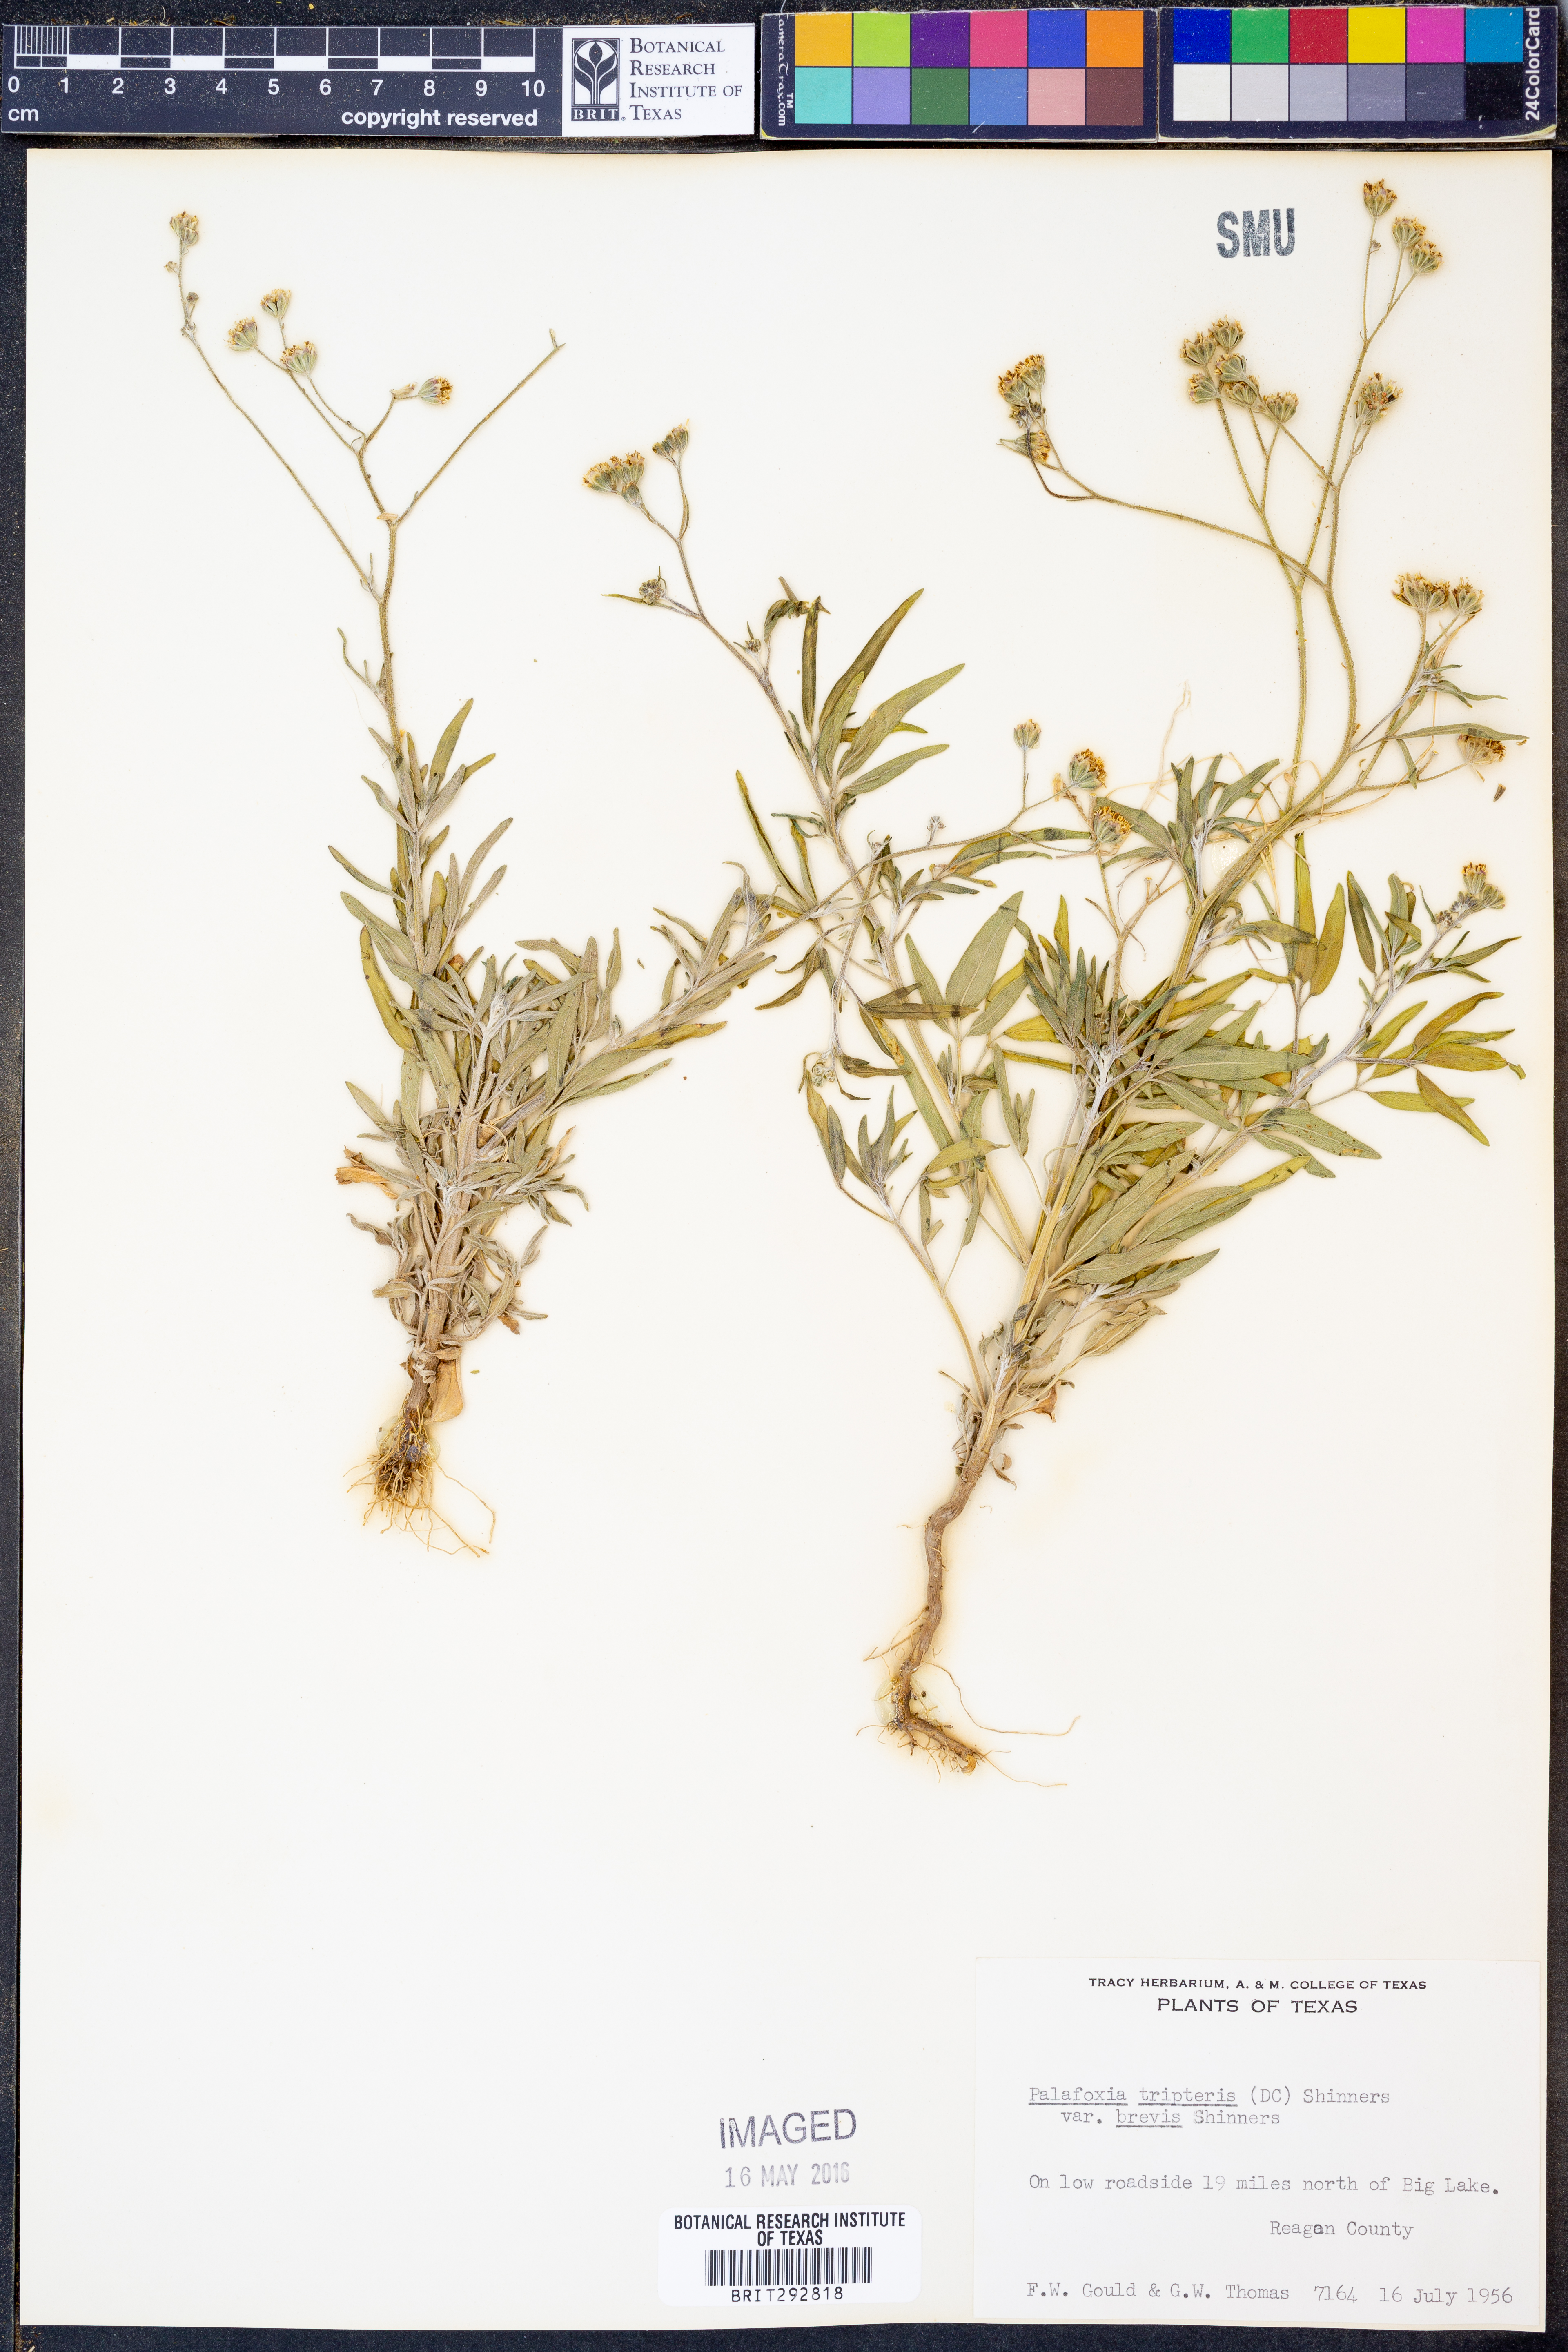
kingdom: Plantae
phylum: Tracheophyta
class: Magnoliopsida
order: Asterales
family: Asteraceae
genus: Florestina
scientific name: Florestina tripteris
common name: Sticky florestina
